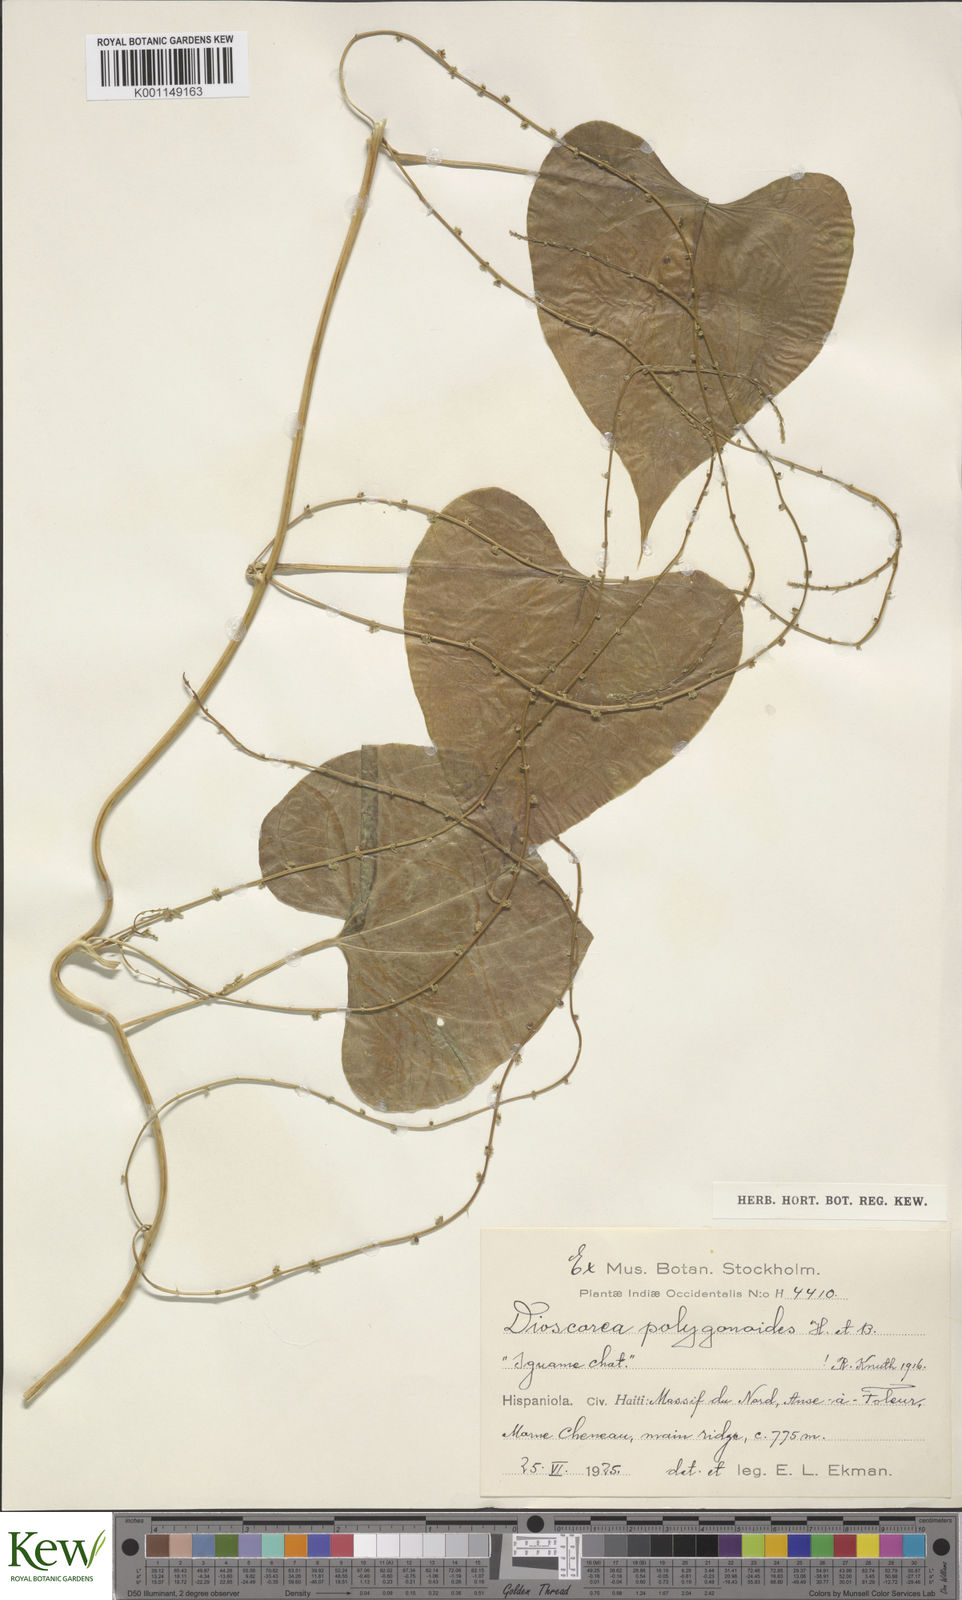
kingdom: Plantae
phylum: Tracheophyta
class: Liliopsida
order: Dioscoreales
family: Dioscoreaceae
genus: Dioscorea
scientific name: Dioscorea polygonoides
